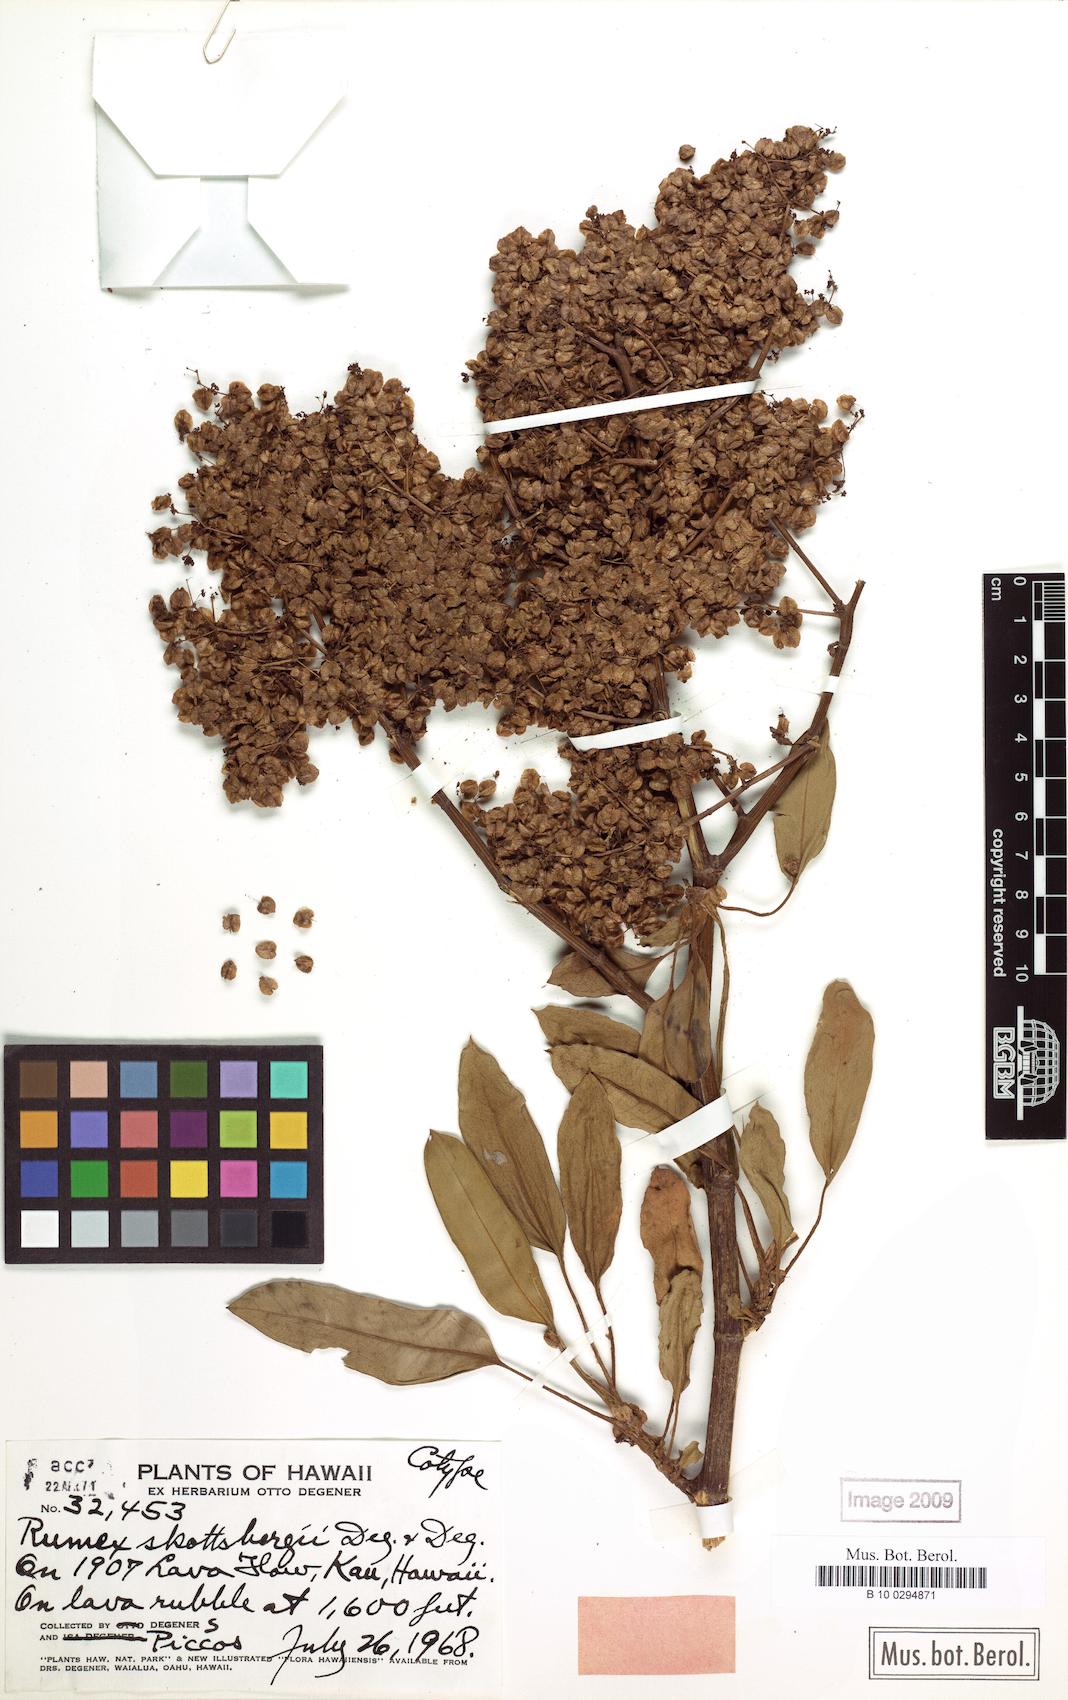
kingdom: Plantae
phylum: Tracheophyta
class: Magnoliopsida
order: Caryophyllales
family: Polygonaceae
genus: Rumex
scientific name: Rumex skottsbergii
